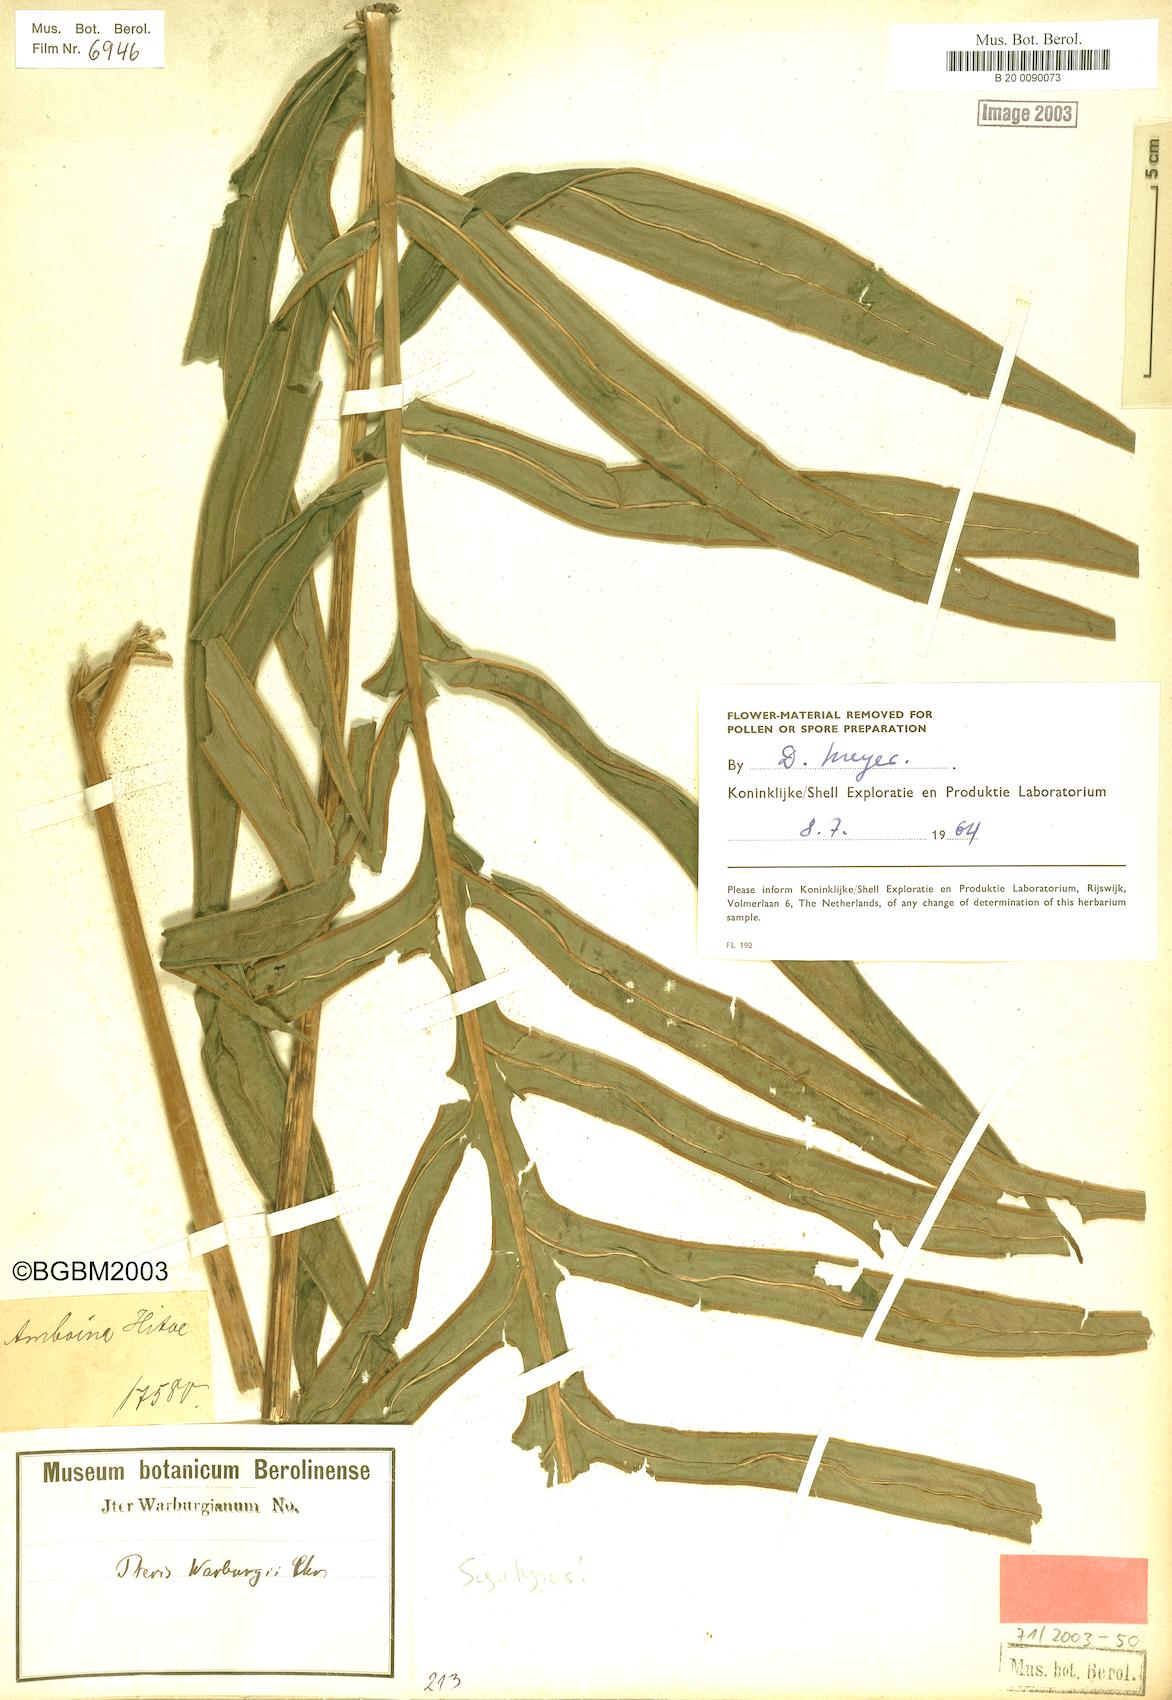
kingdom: Plantae
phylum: Tracheophyta
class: Polypodiopsida
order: Polypodiales
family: Pteridaceae
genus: Pteris
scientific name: Pteris warburgii
